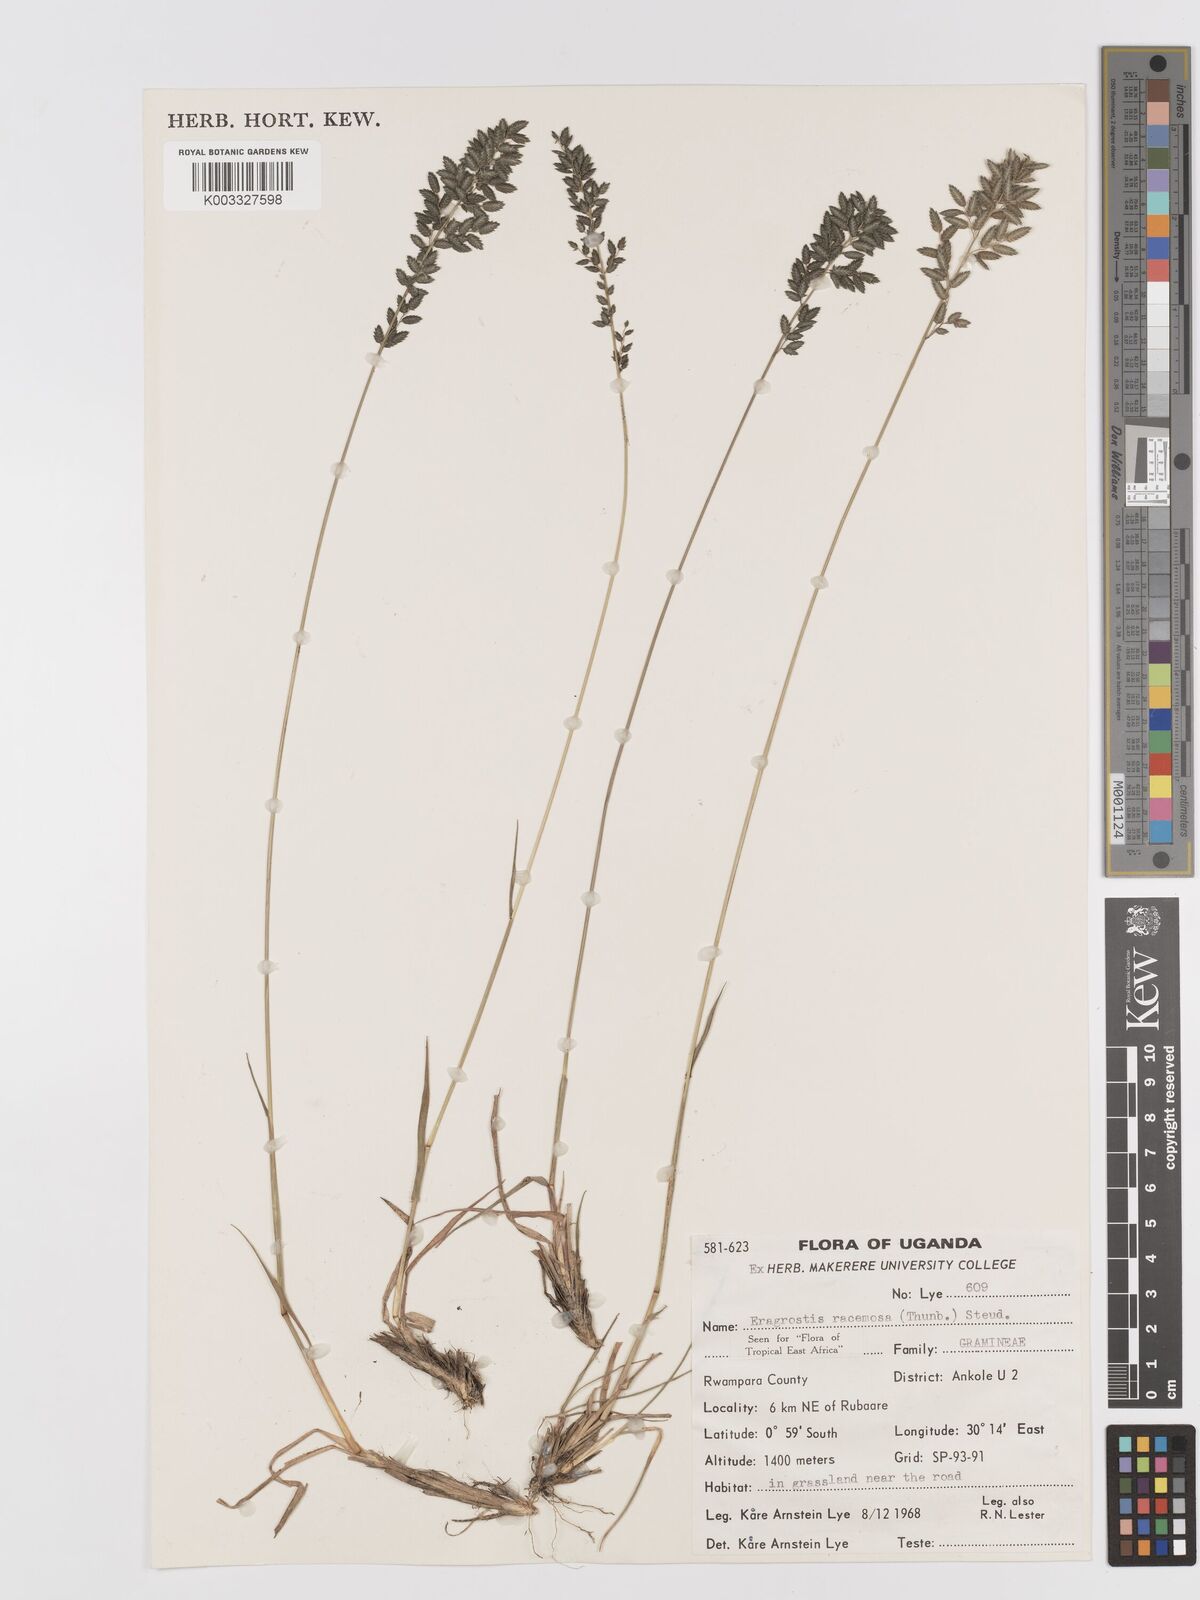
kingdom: Plantae
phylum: Tracheophyta
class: Liliopsida
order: Poales
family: Poaceae
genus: Eragrostis
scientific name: Eragrostis racemosa
